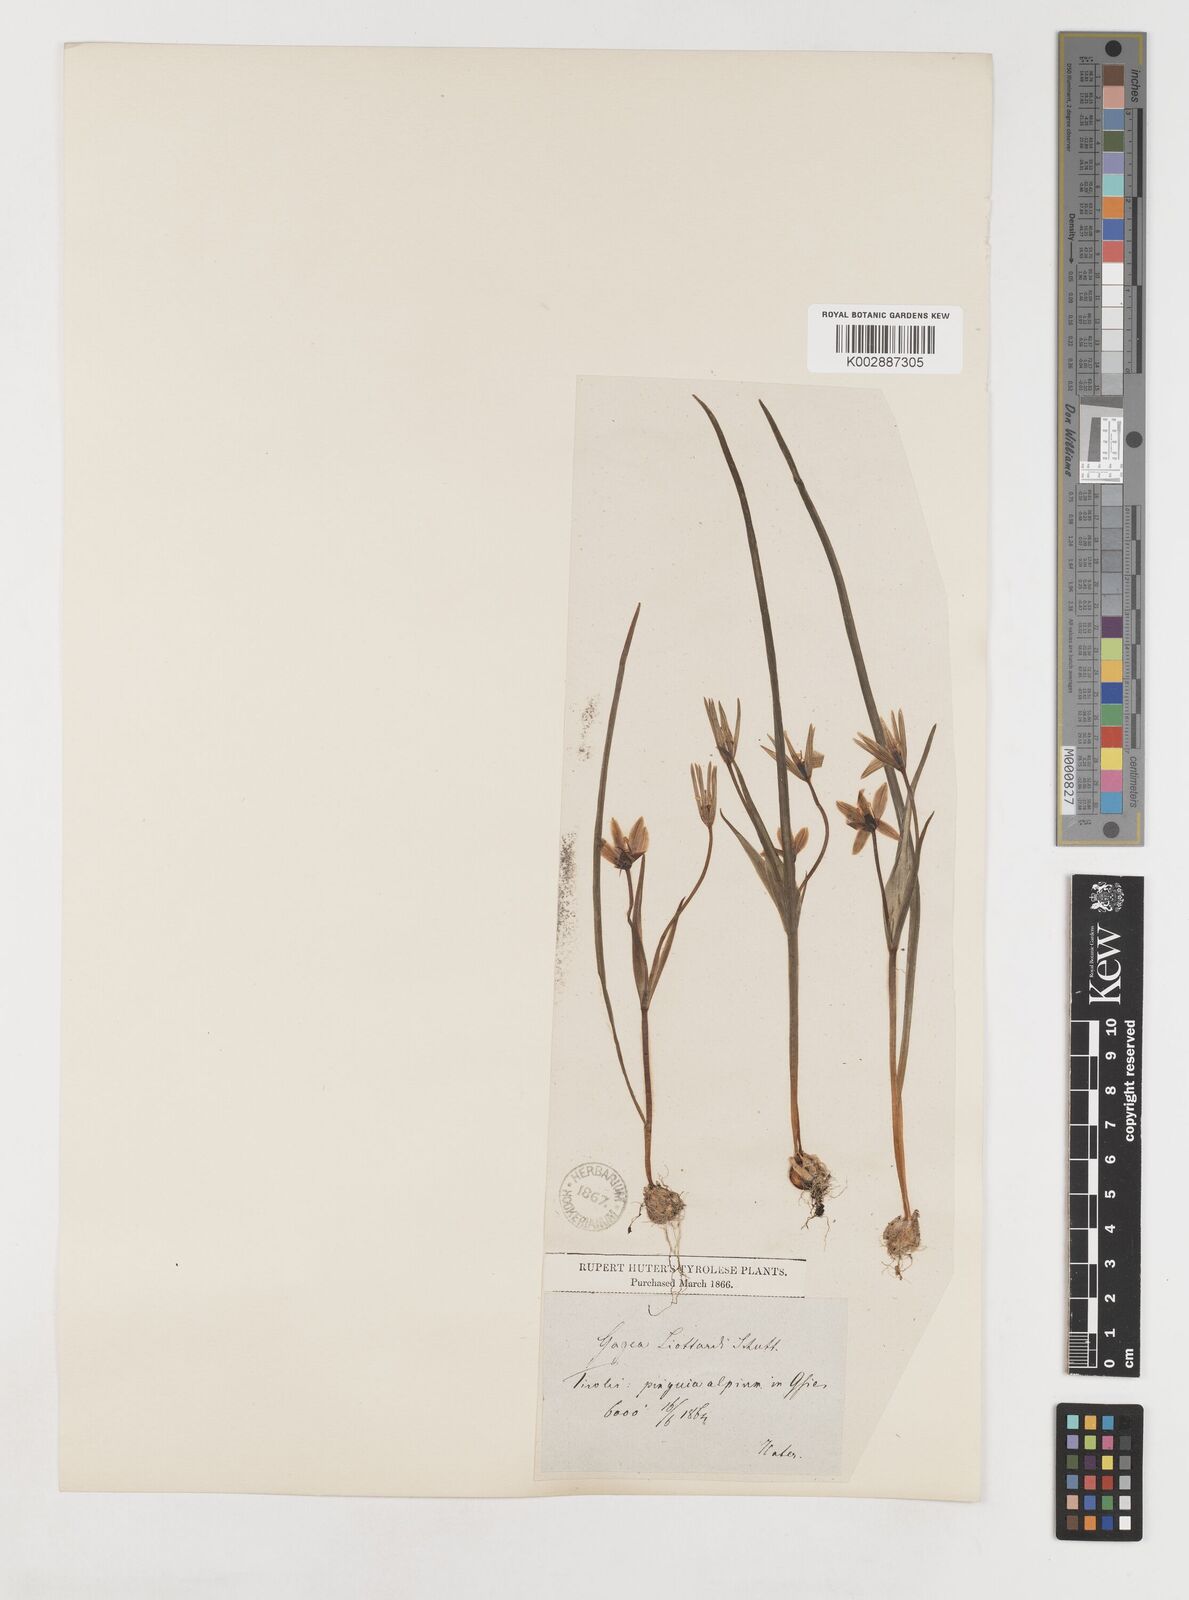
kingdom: Plantae
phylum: Tracheophyta
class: Liliopsida
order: Liliales
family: Liliaceae
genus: Gagea
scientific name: Gagea bohemica
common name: Early star-of-bethlehem
